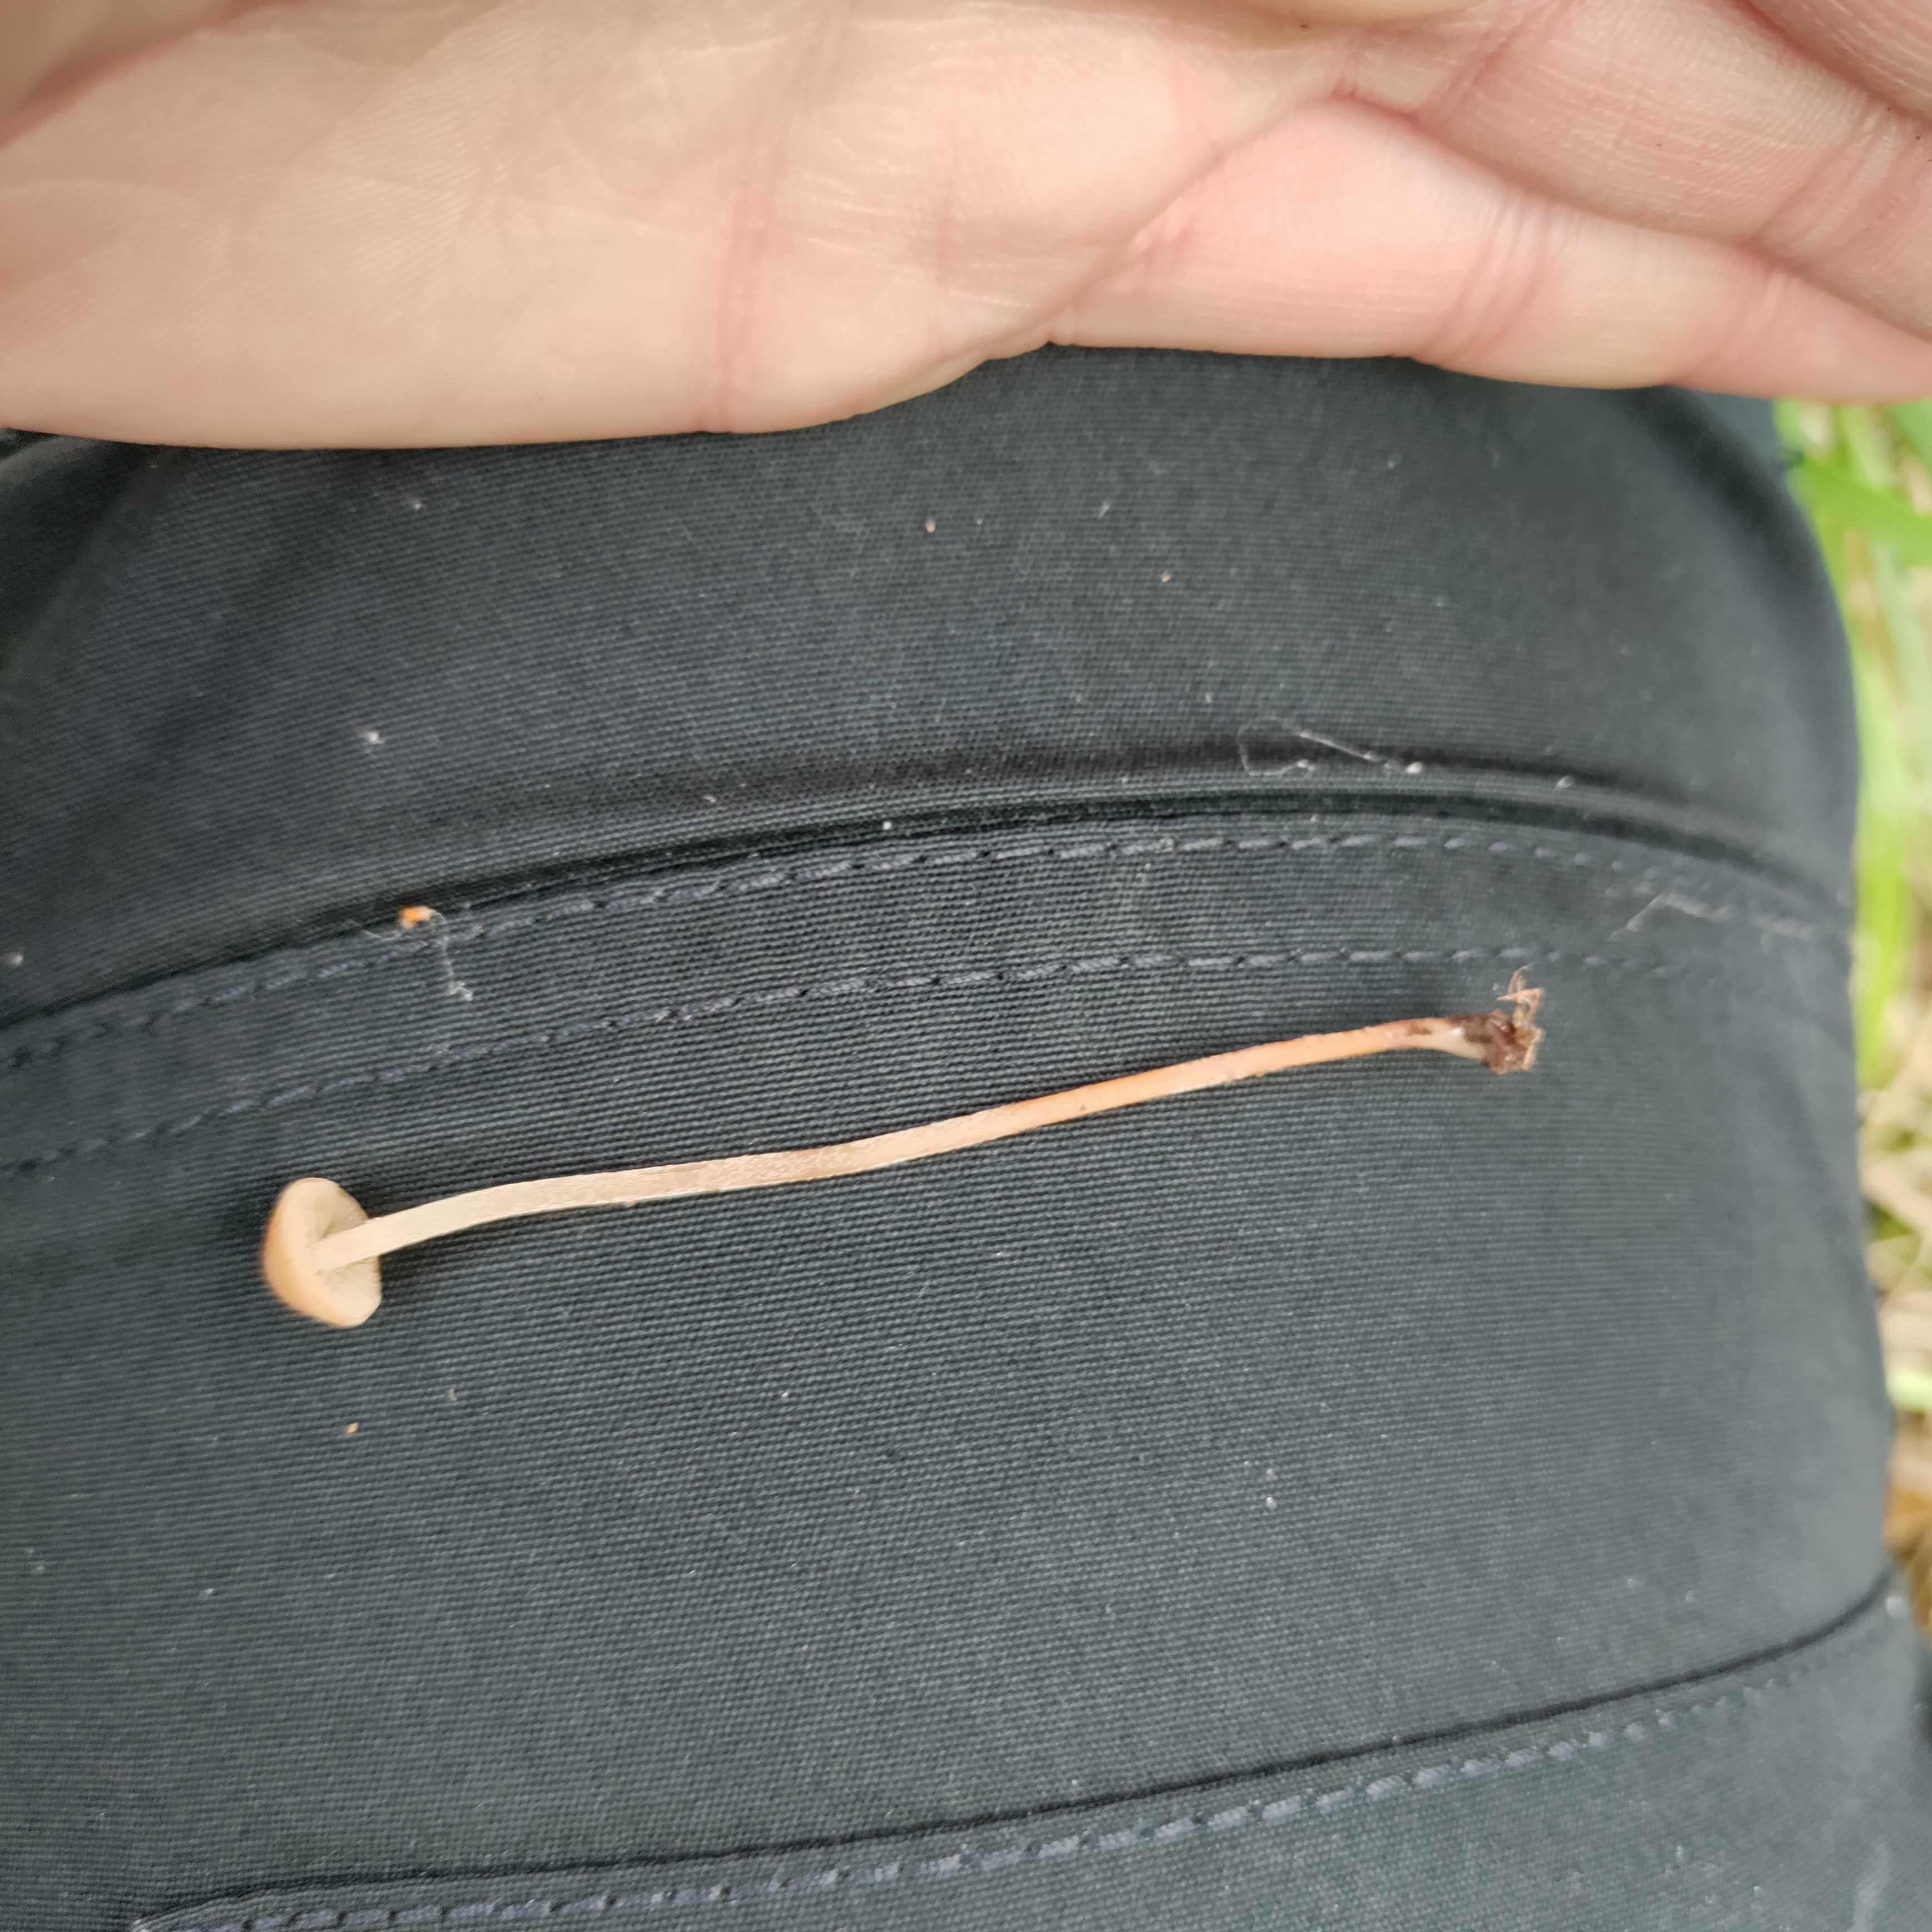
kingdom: Fungi
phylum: Basidiomycota
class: Agaricomycetes
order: Agaricales
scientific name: Agaricales
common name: champignonordenen
